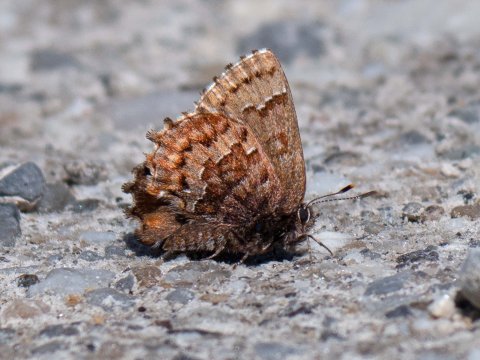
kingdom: Animalia
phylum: Arthropoda
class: Insecta
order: Lepidoptera
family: Lycaenidae
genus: Incisalia
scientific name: Incisalia niphon
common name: Eastern Pine Elfin
